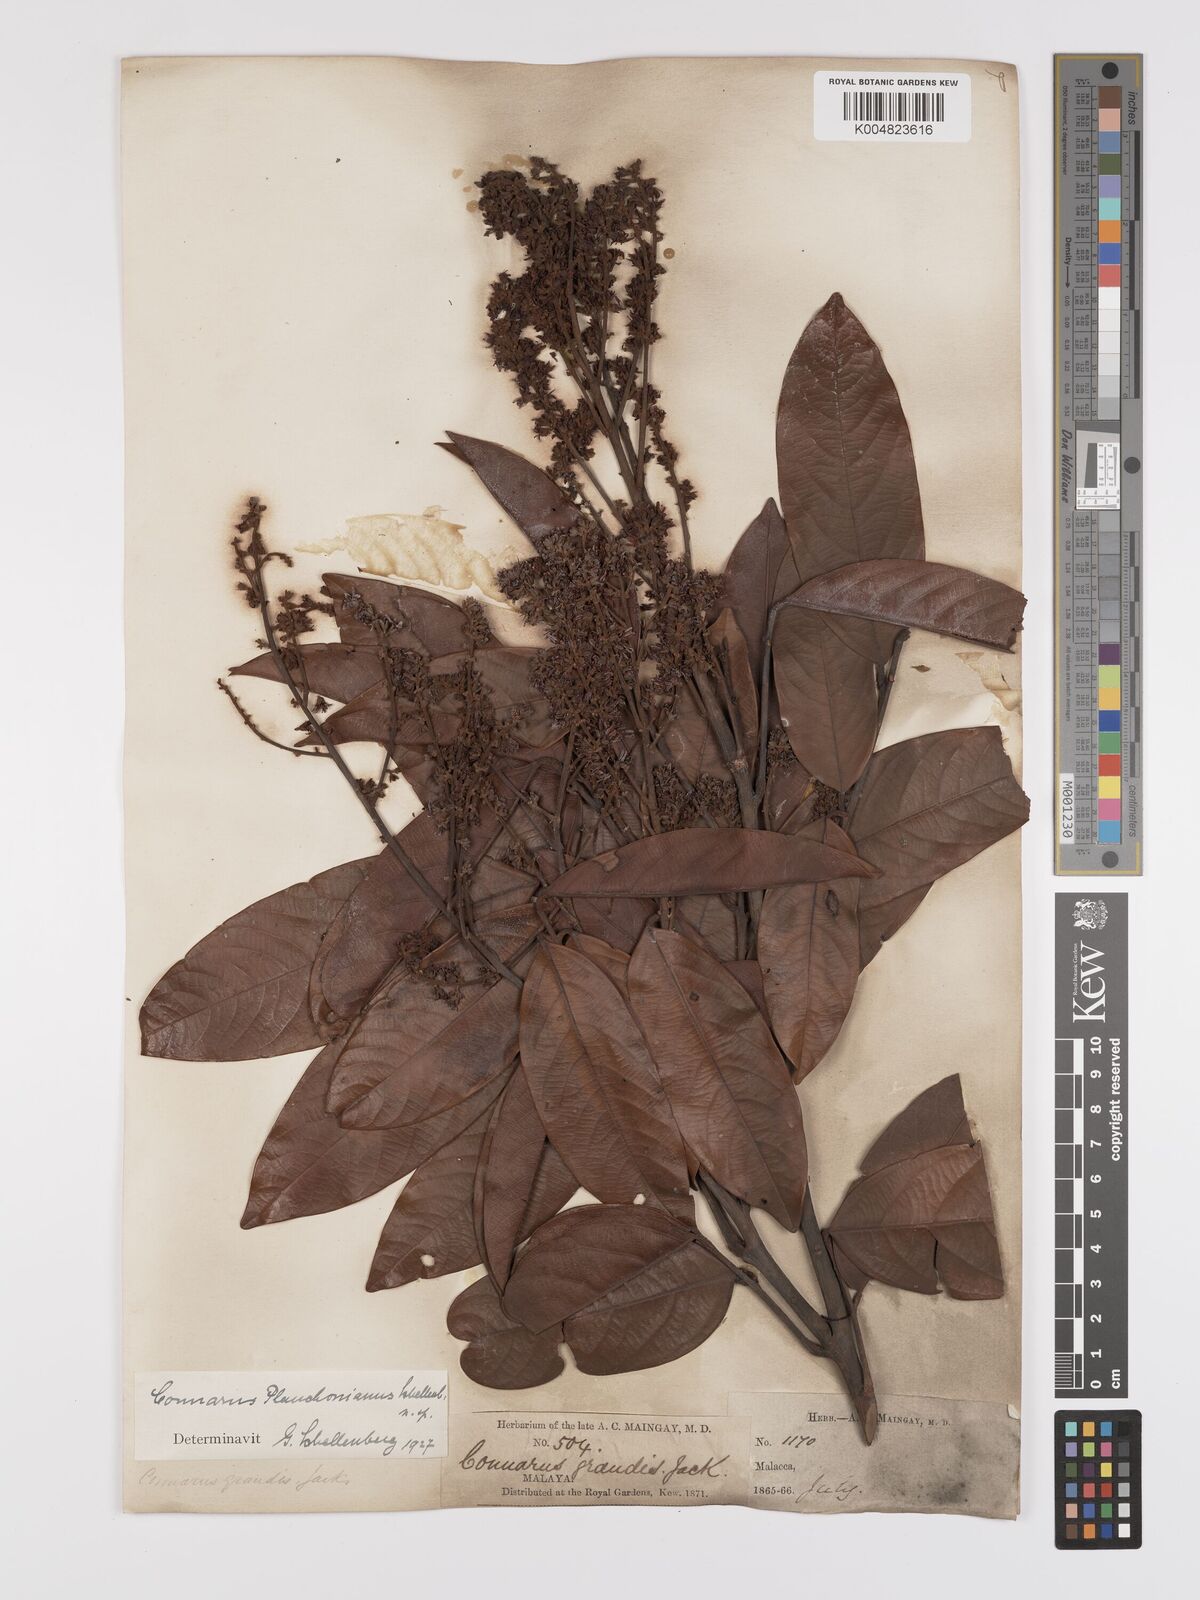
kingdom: Plantae
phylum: Tracheophyta
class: Magnoliopsida
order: Oxalidales
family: Connaraceae
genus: Connarus
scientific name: Connarus planchonianus
